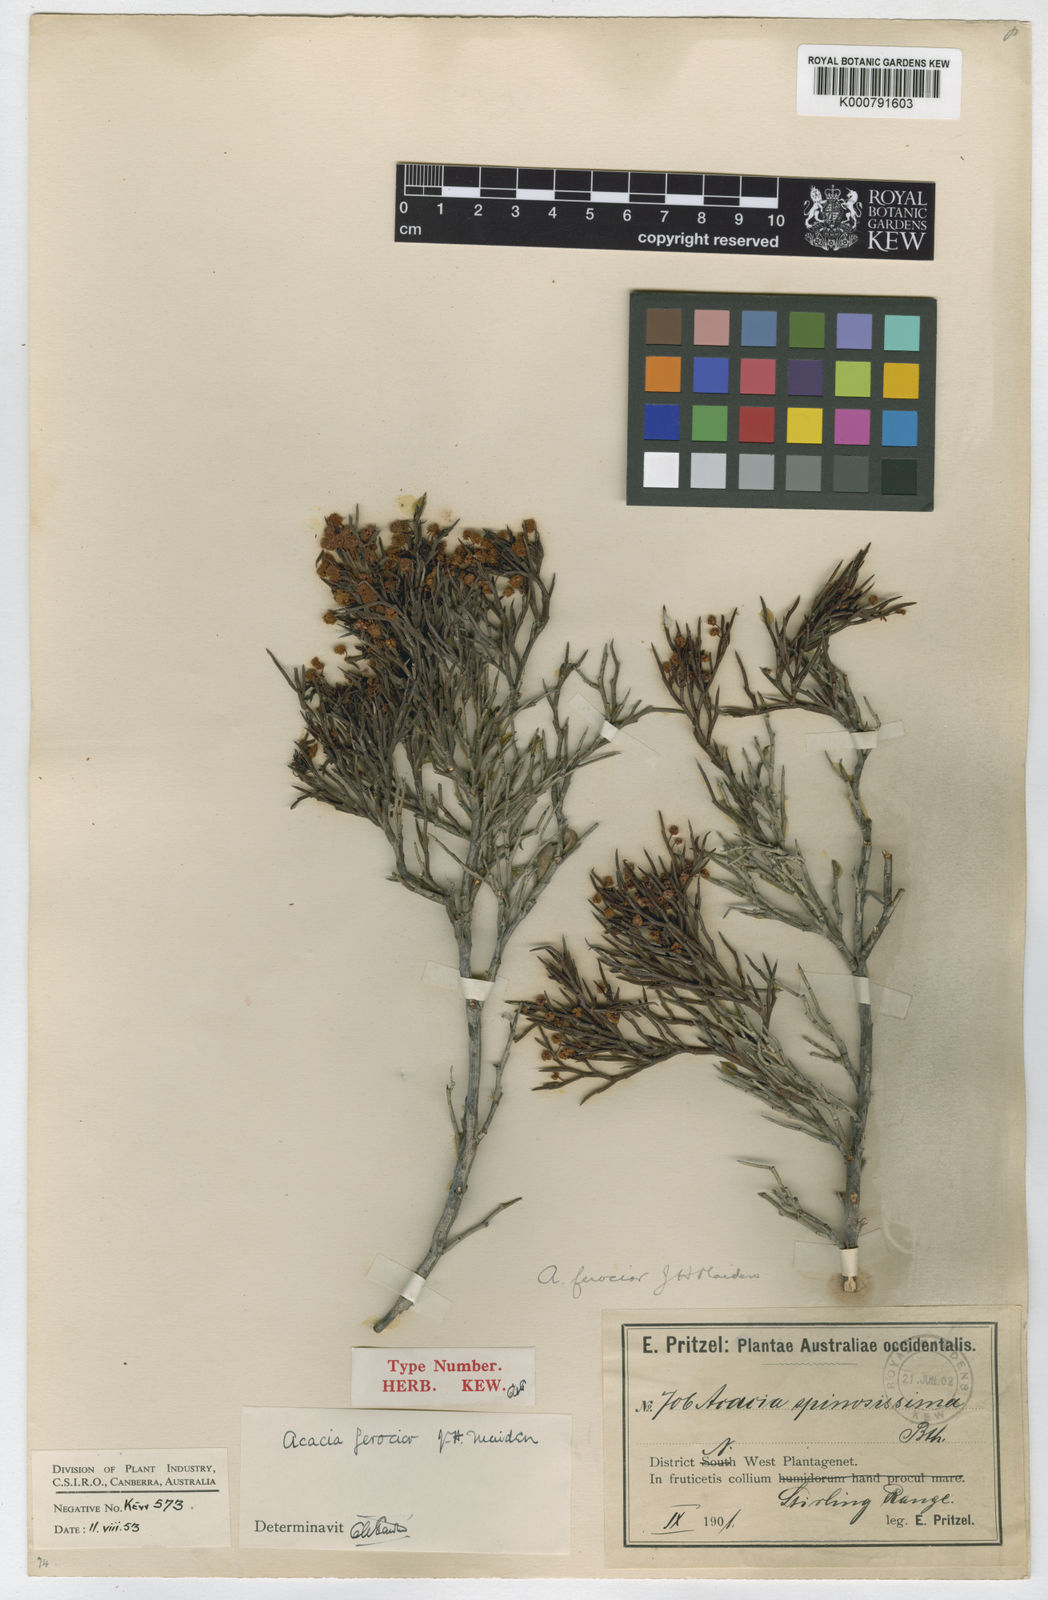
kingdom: Plantae
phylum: Tracheophyta
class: Magnoliopsida
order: Fabales
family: Fabaceae
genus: Acacia
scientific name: Acacia ferocior
